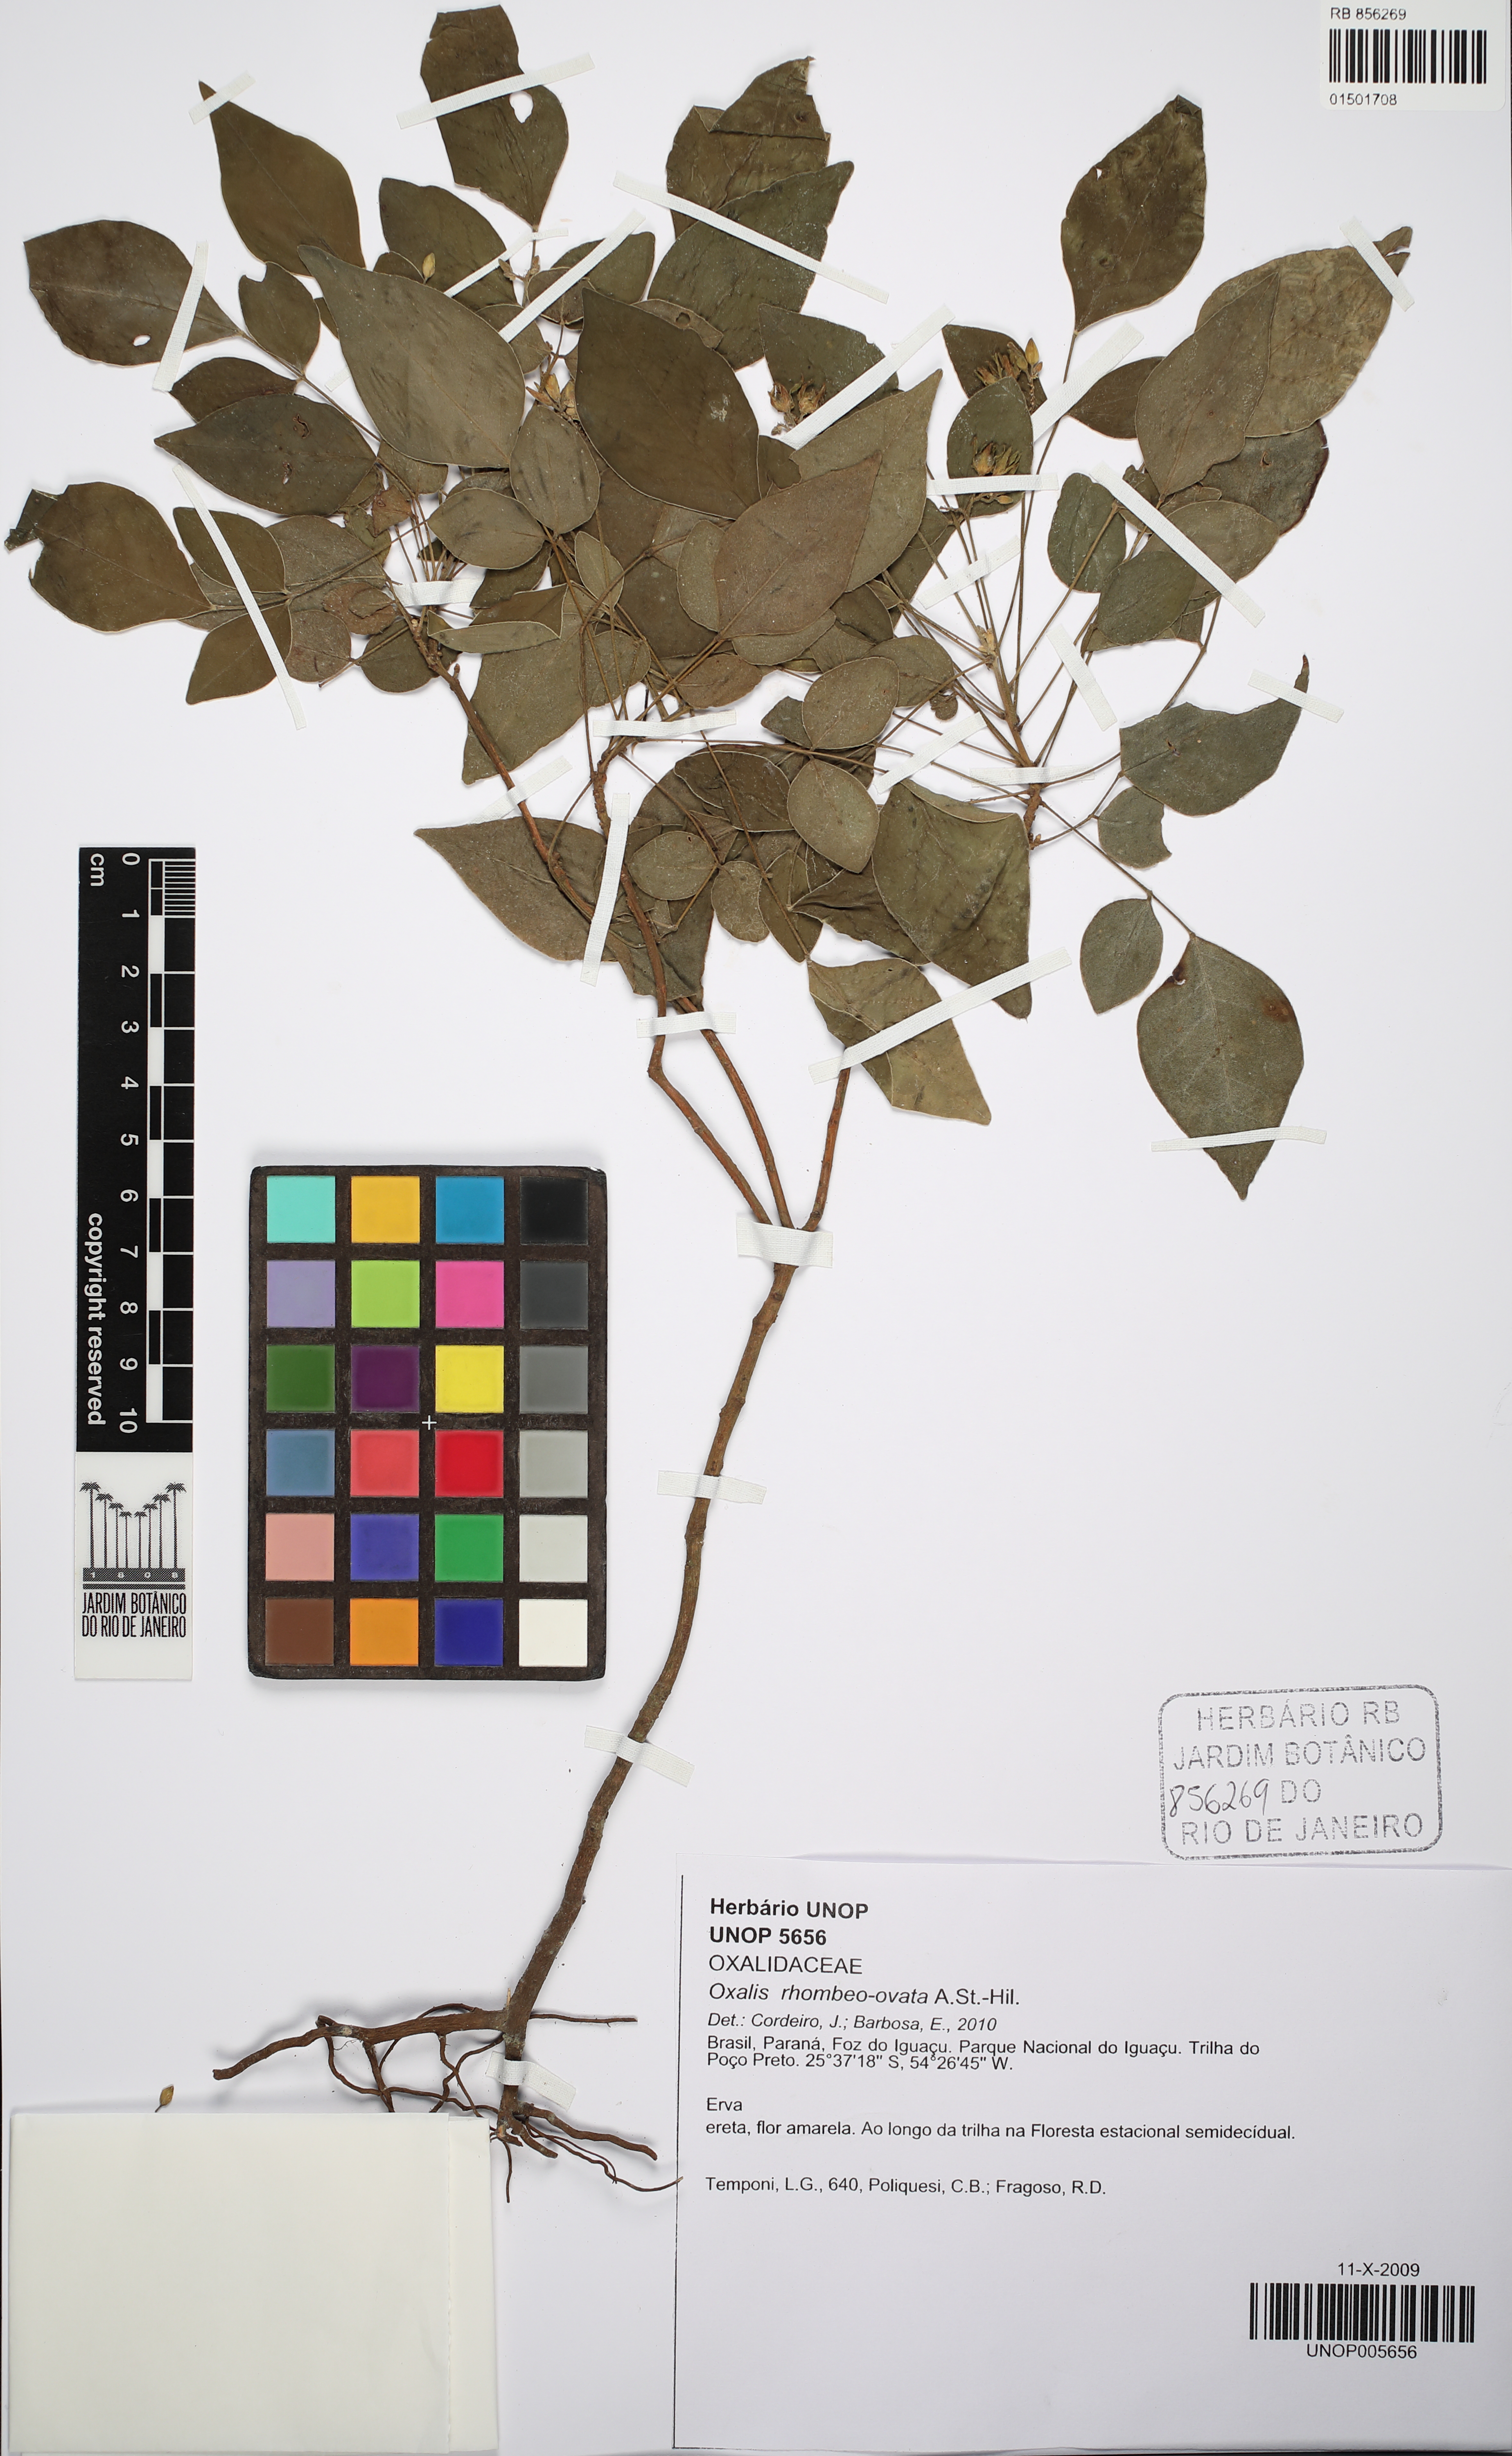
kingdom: Plantae
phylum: Tracheophyta
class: Magnoliopsida
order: Oxalidales
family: Oxalidaceae
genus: Oxalis
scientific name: Oxalis rhombeo-ovata
